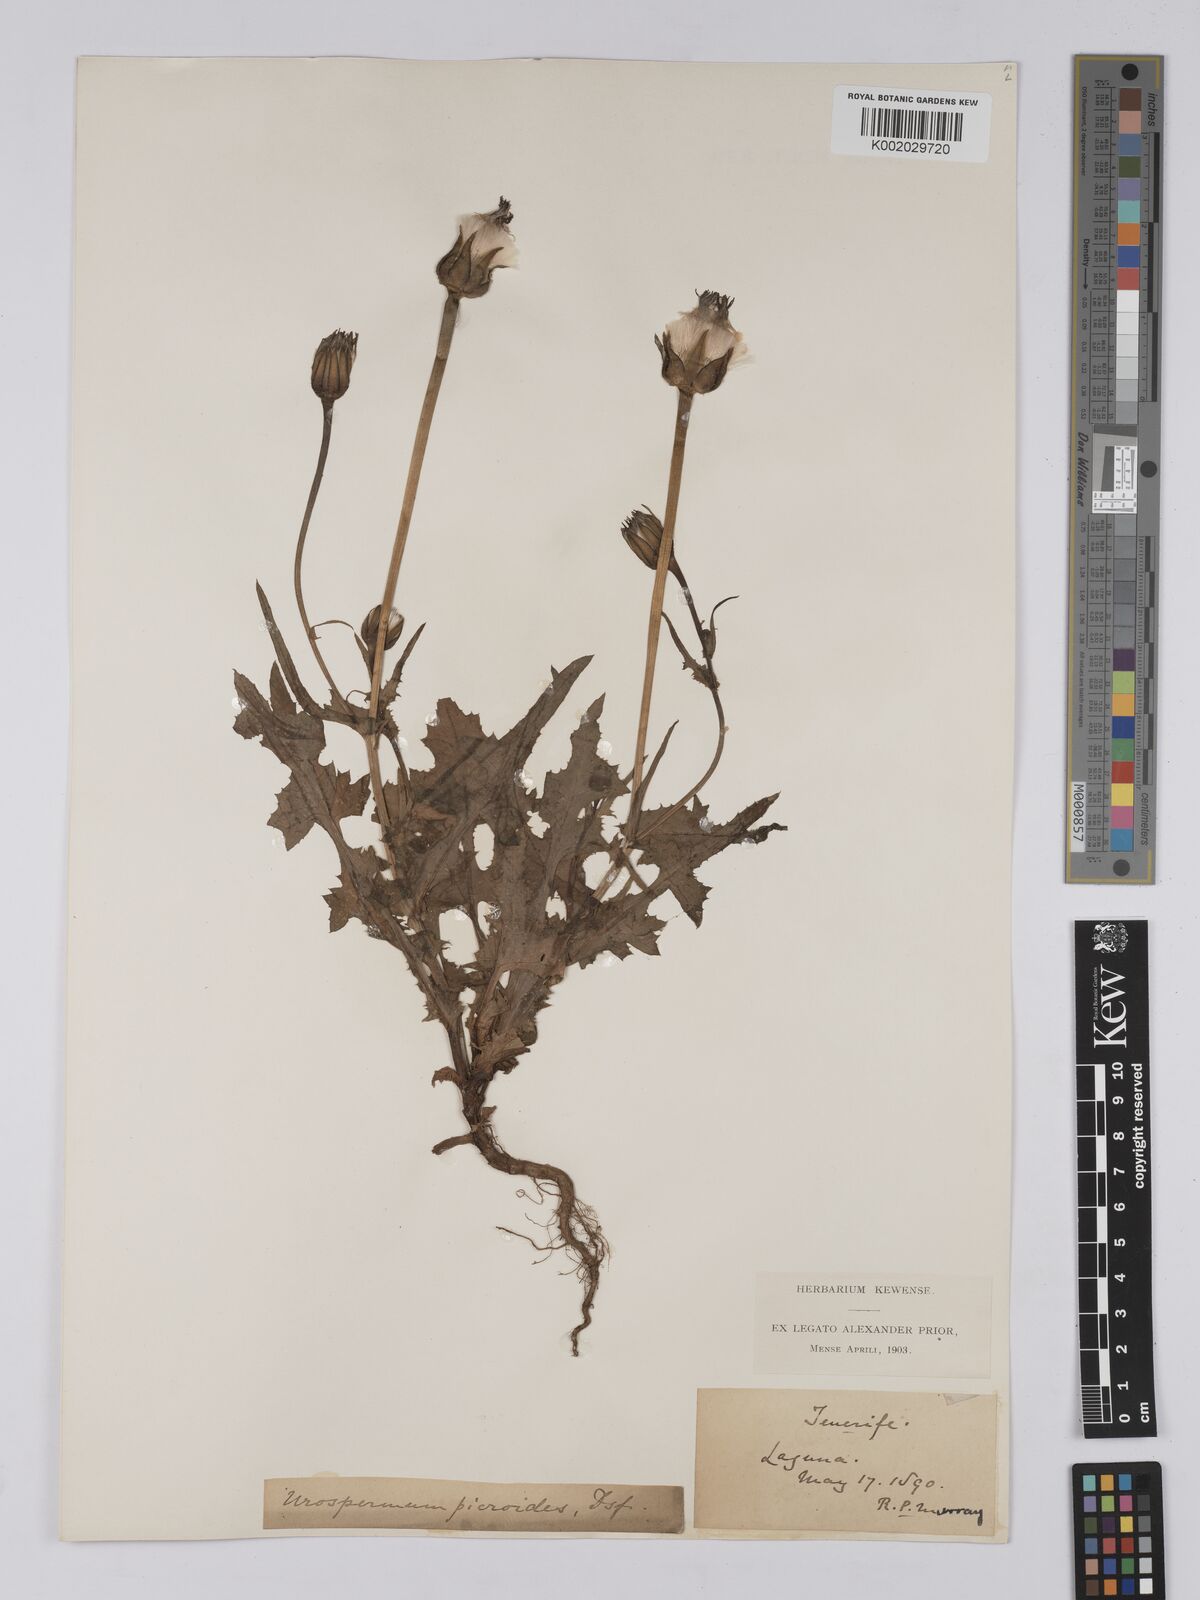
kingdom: Plantae
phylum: Tracheophyta
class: Magnoliopsida
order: Asterales
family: Asteraceae
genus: Urospermum
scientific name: Urospermum picroides
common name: False hawkbit
